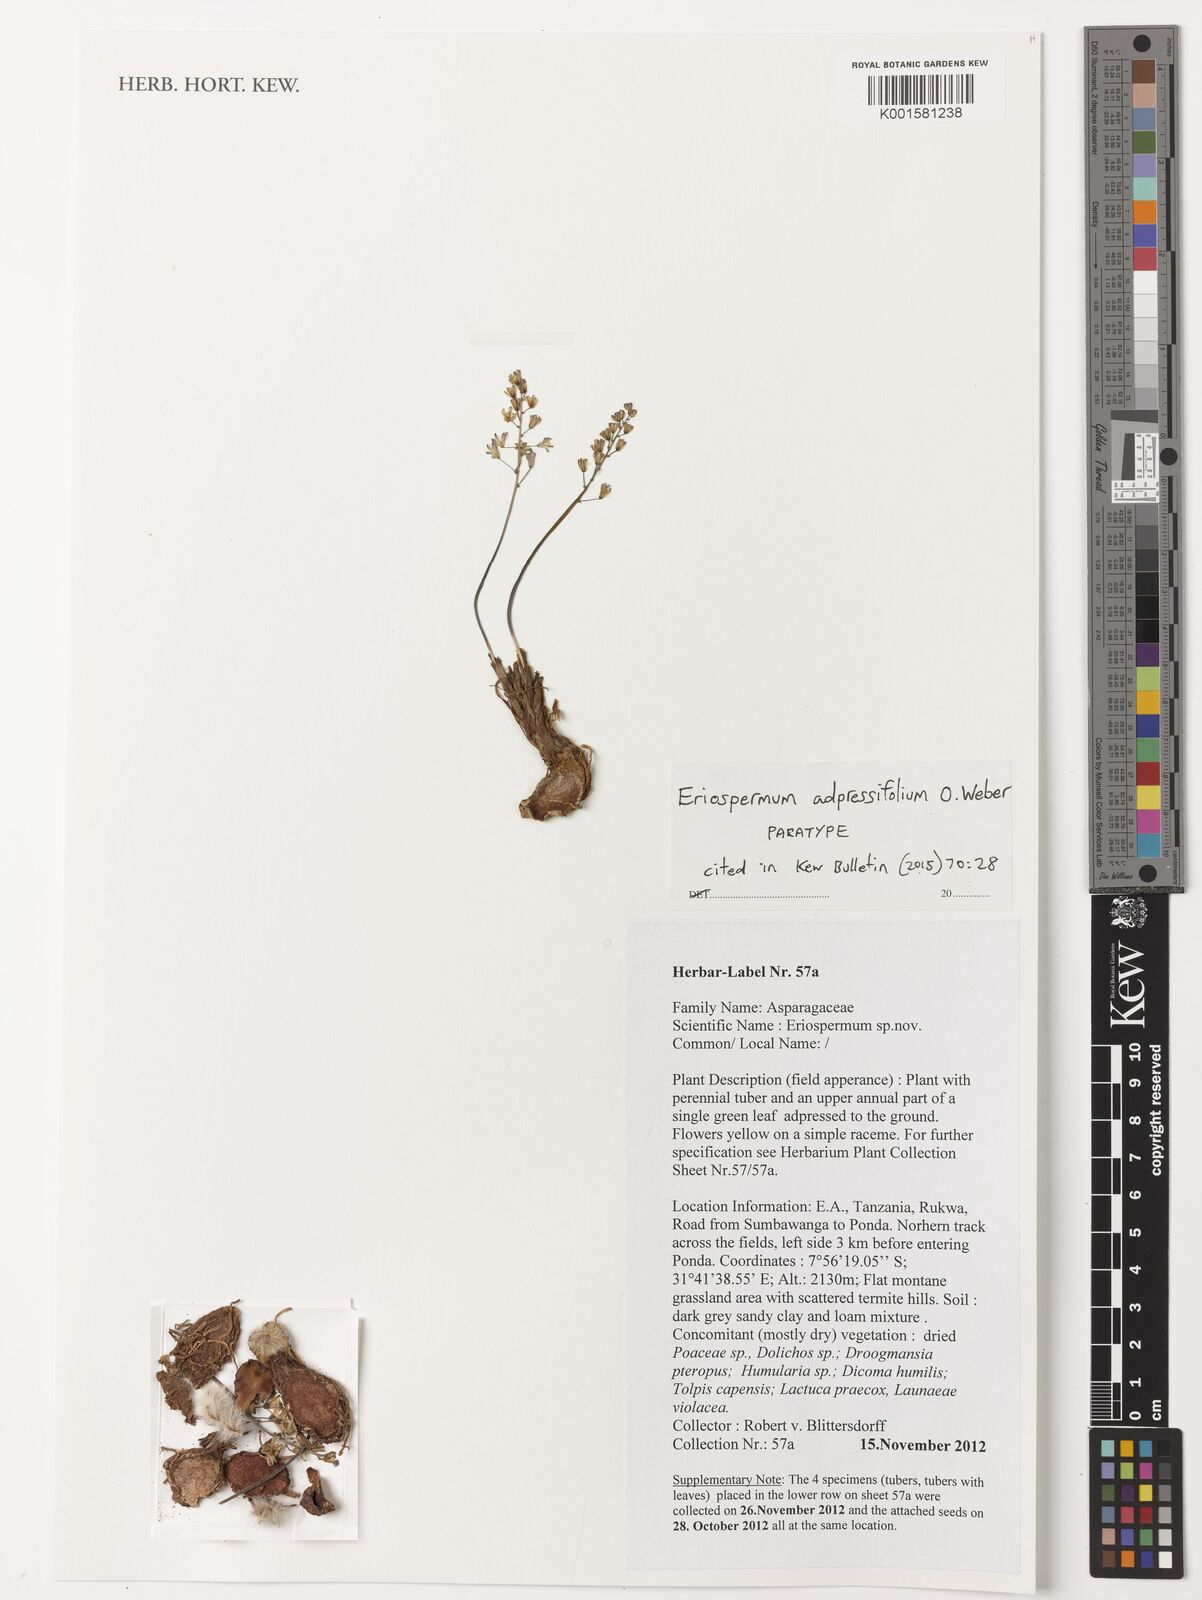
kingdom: Plantae
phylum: Tracheophyta
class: Liliopsida
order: Asparagales
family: Asparagaceae
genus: Eriospermum
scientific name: Eriospermum adpressifolium
